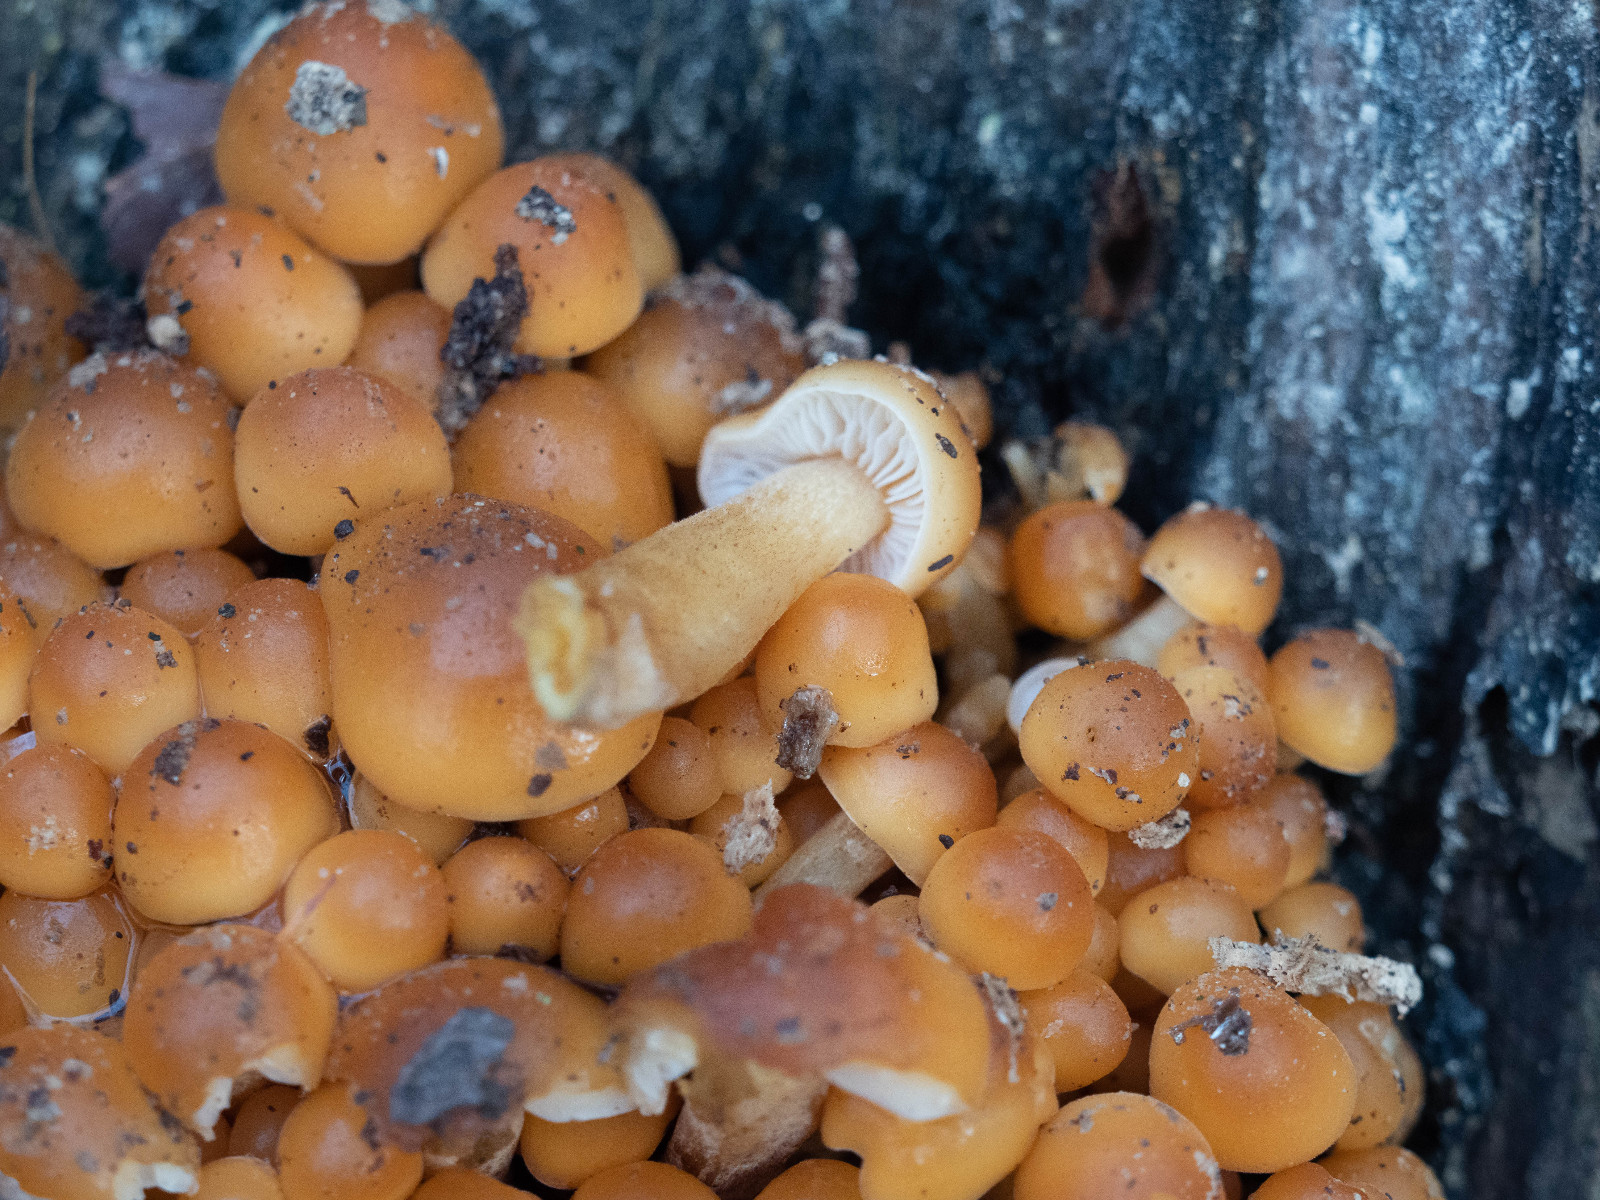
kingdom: Fungi
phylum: Basidiomycota
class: Agaricomycetes
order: Agaricales
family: Physalacriaceae
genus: Flammulina
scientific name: Flammulina
